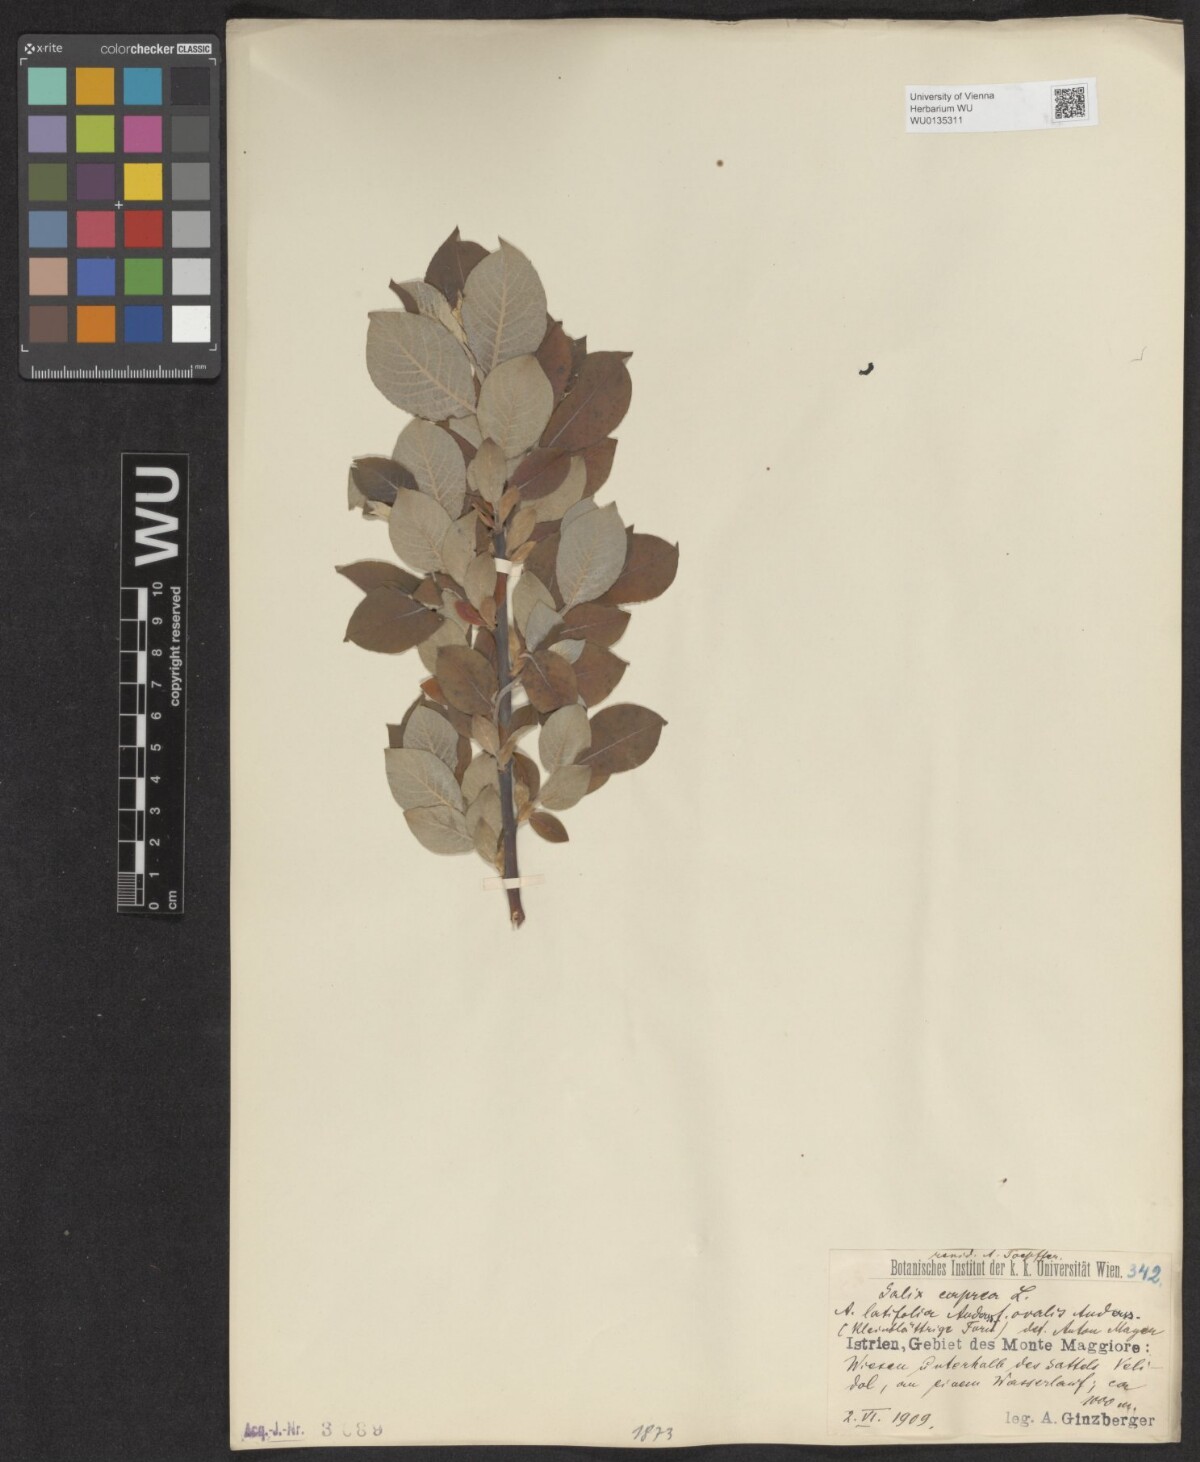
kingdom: Plantae
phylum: Tracheophyta
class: Magnoliopsida
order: Malpighiales
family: Salicaceae
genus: Salix
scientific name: Salix caprea
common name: Goat willow
